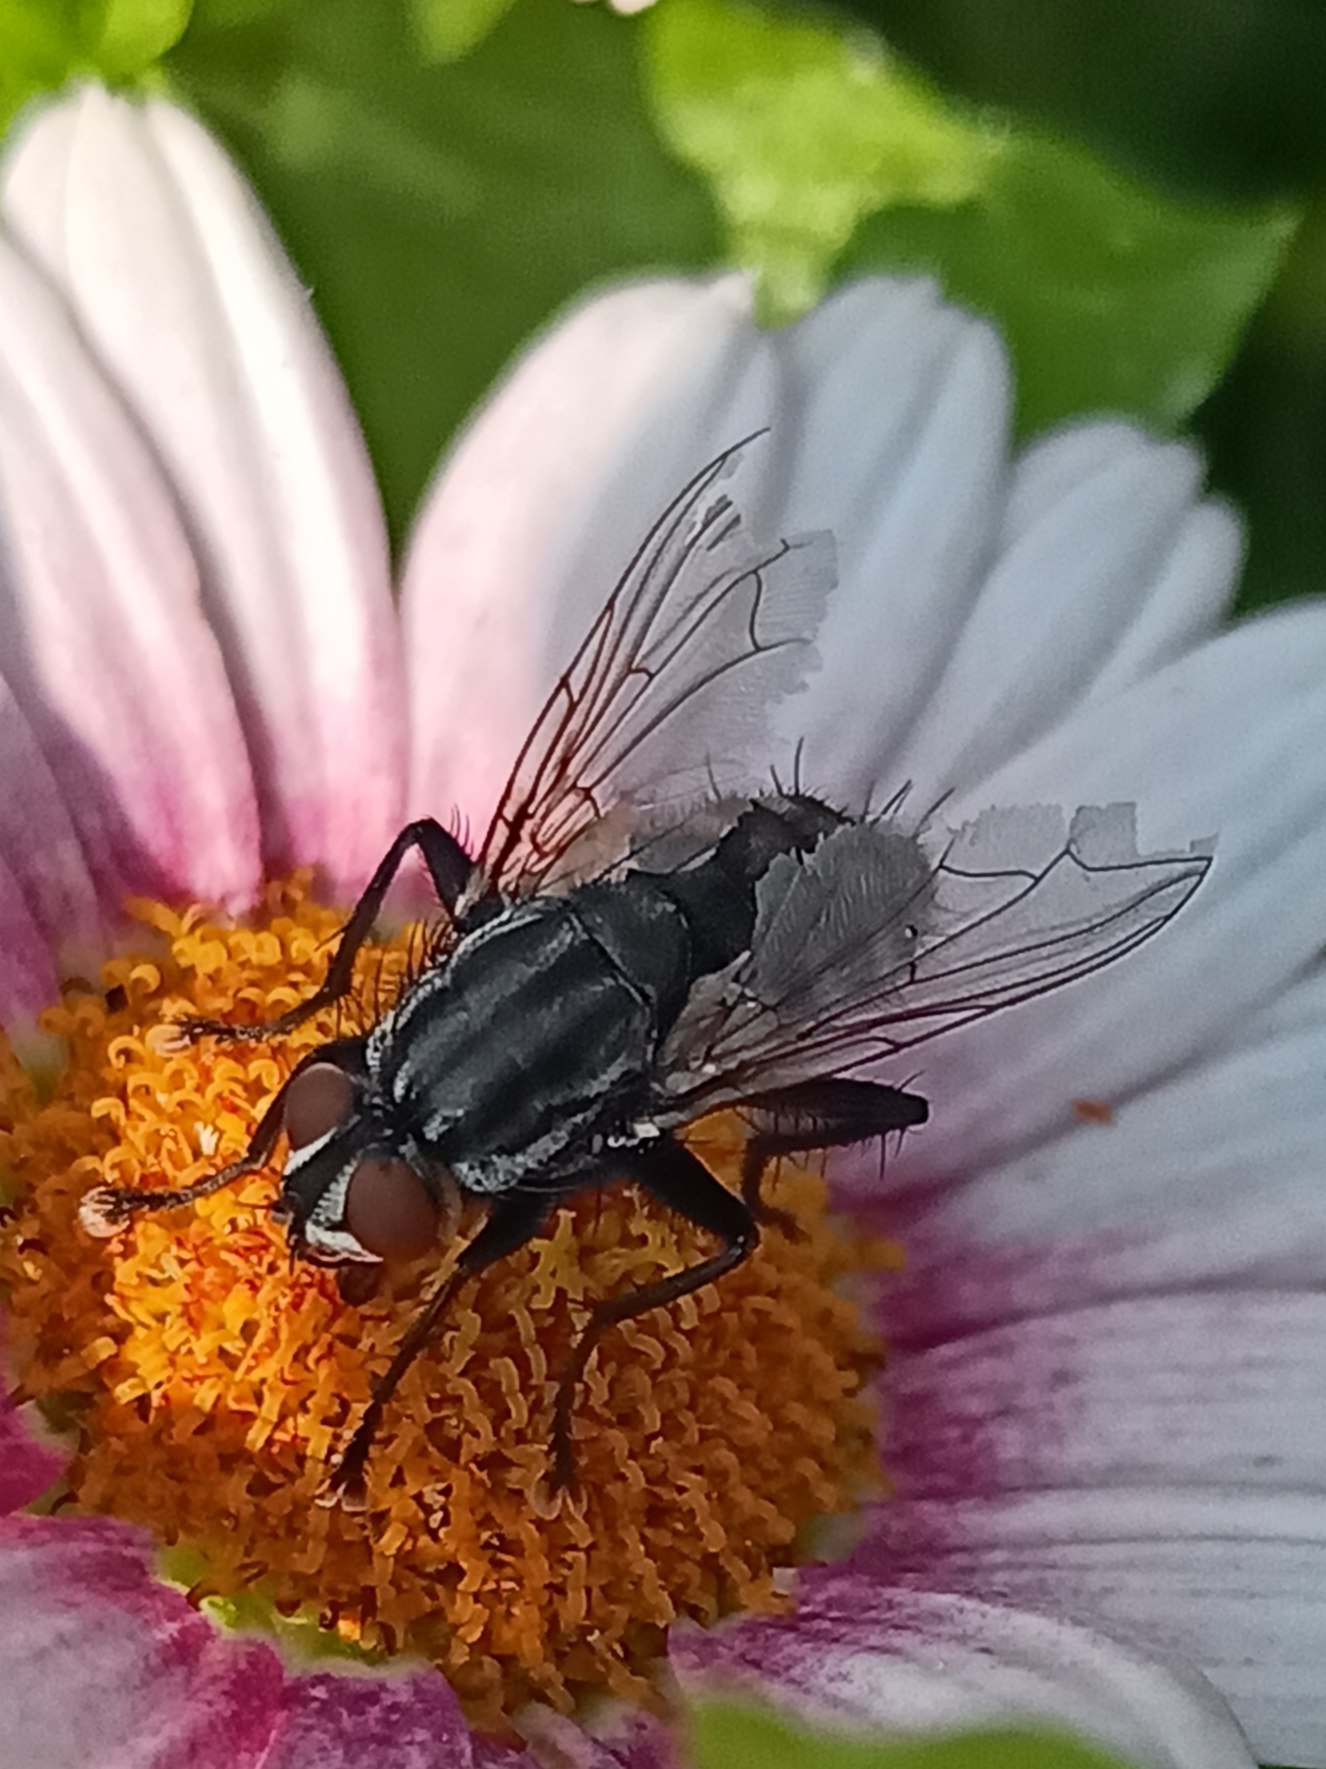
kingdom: Animalia
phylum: Arthropoda
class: Insecta
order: Diptera
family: Sarcophagidae
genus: Sarcophaga
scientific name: Sarcophaga
